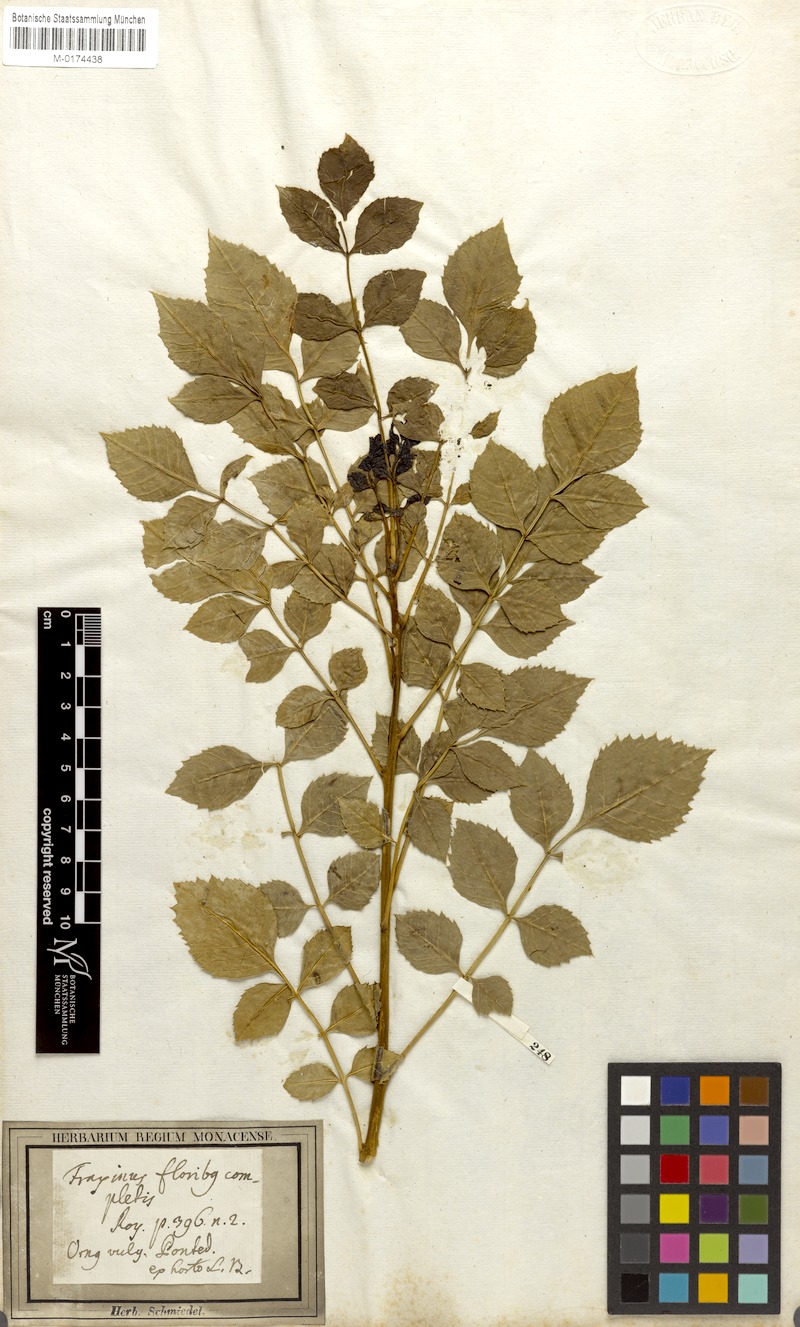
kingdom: Plantae
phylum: Tracheophyta
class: Magnoliopsida
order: Lamiales
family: Oleaceae
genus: Fraxinus
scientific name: Fraxinus angustifolia
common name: Narrow-leafed ash
